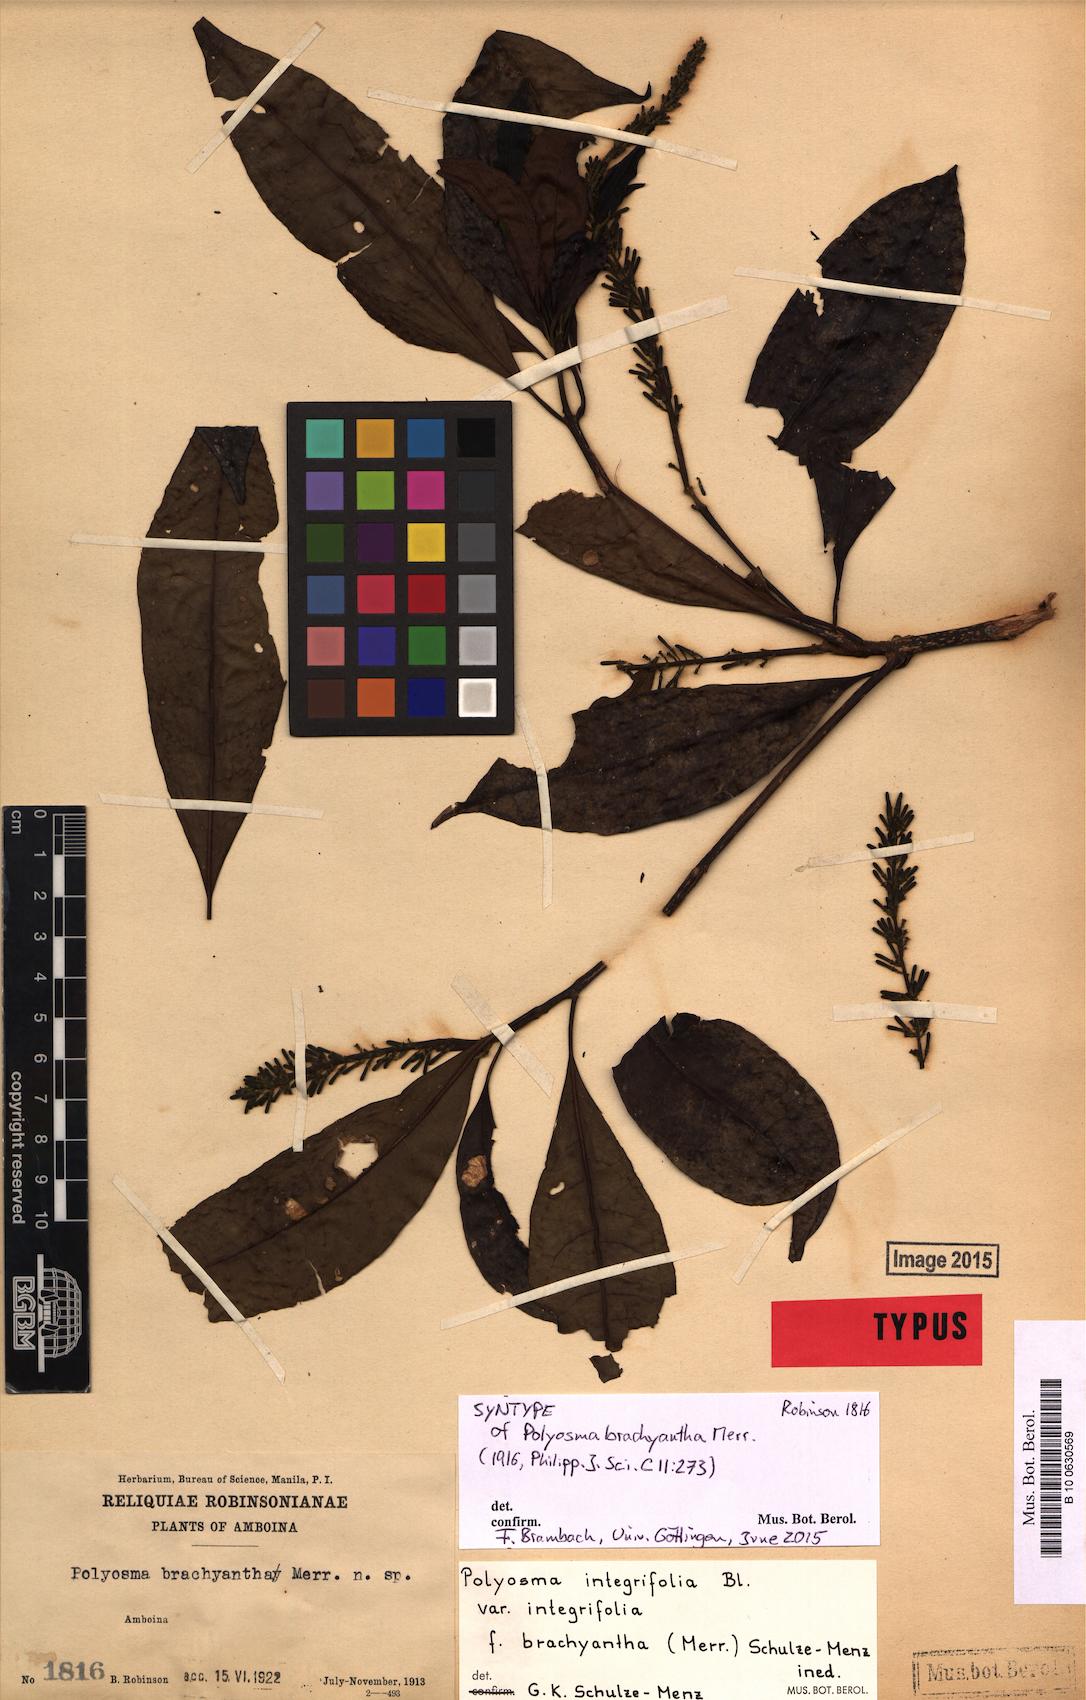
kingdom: Plantae
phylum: Tracheophyta
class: Magnoliopsida
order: Escalloniales
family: Escalloniaceae
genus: Polyosma
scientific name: Polyosma integrifolia
